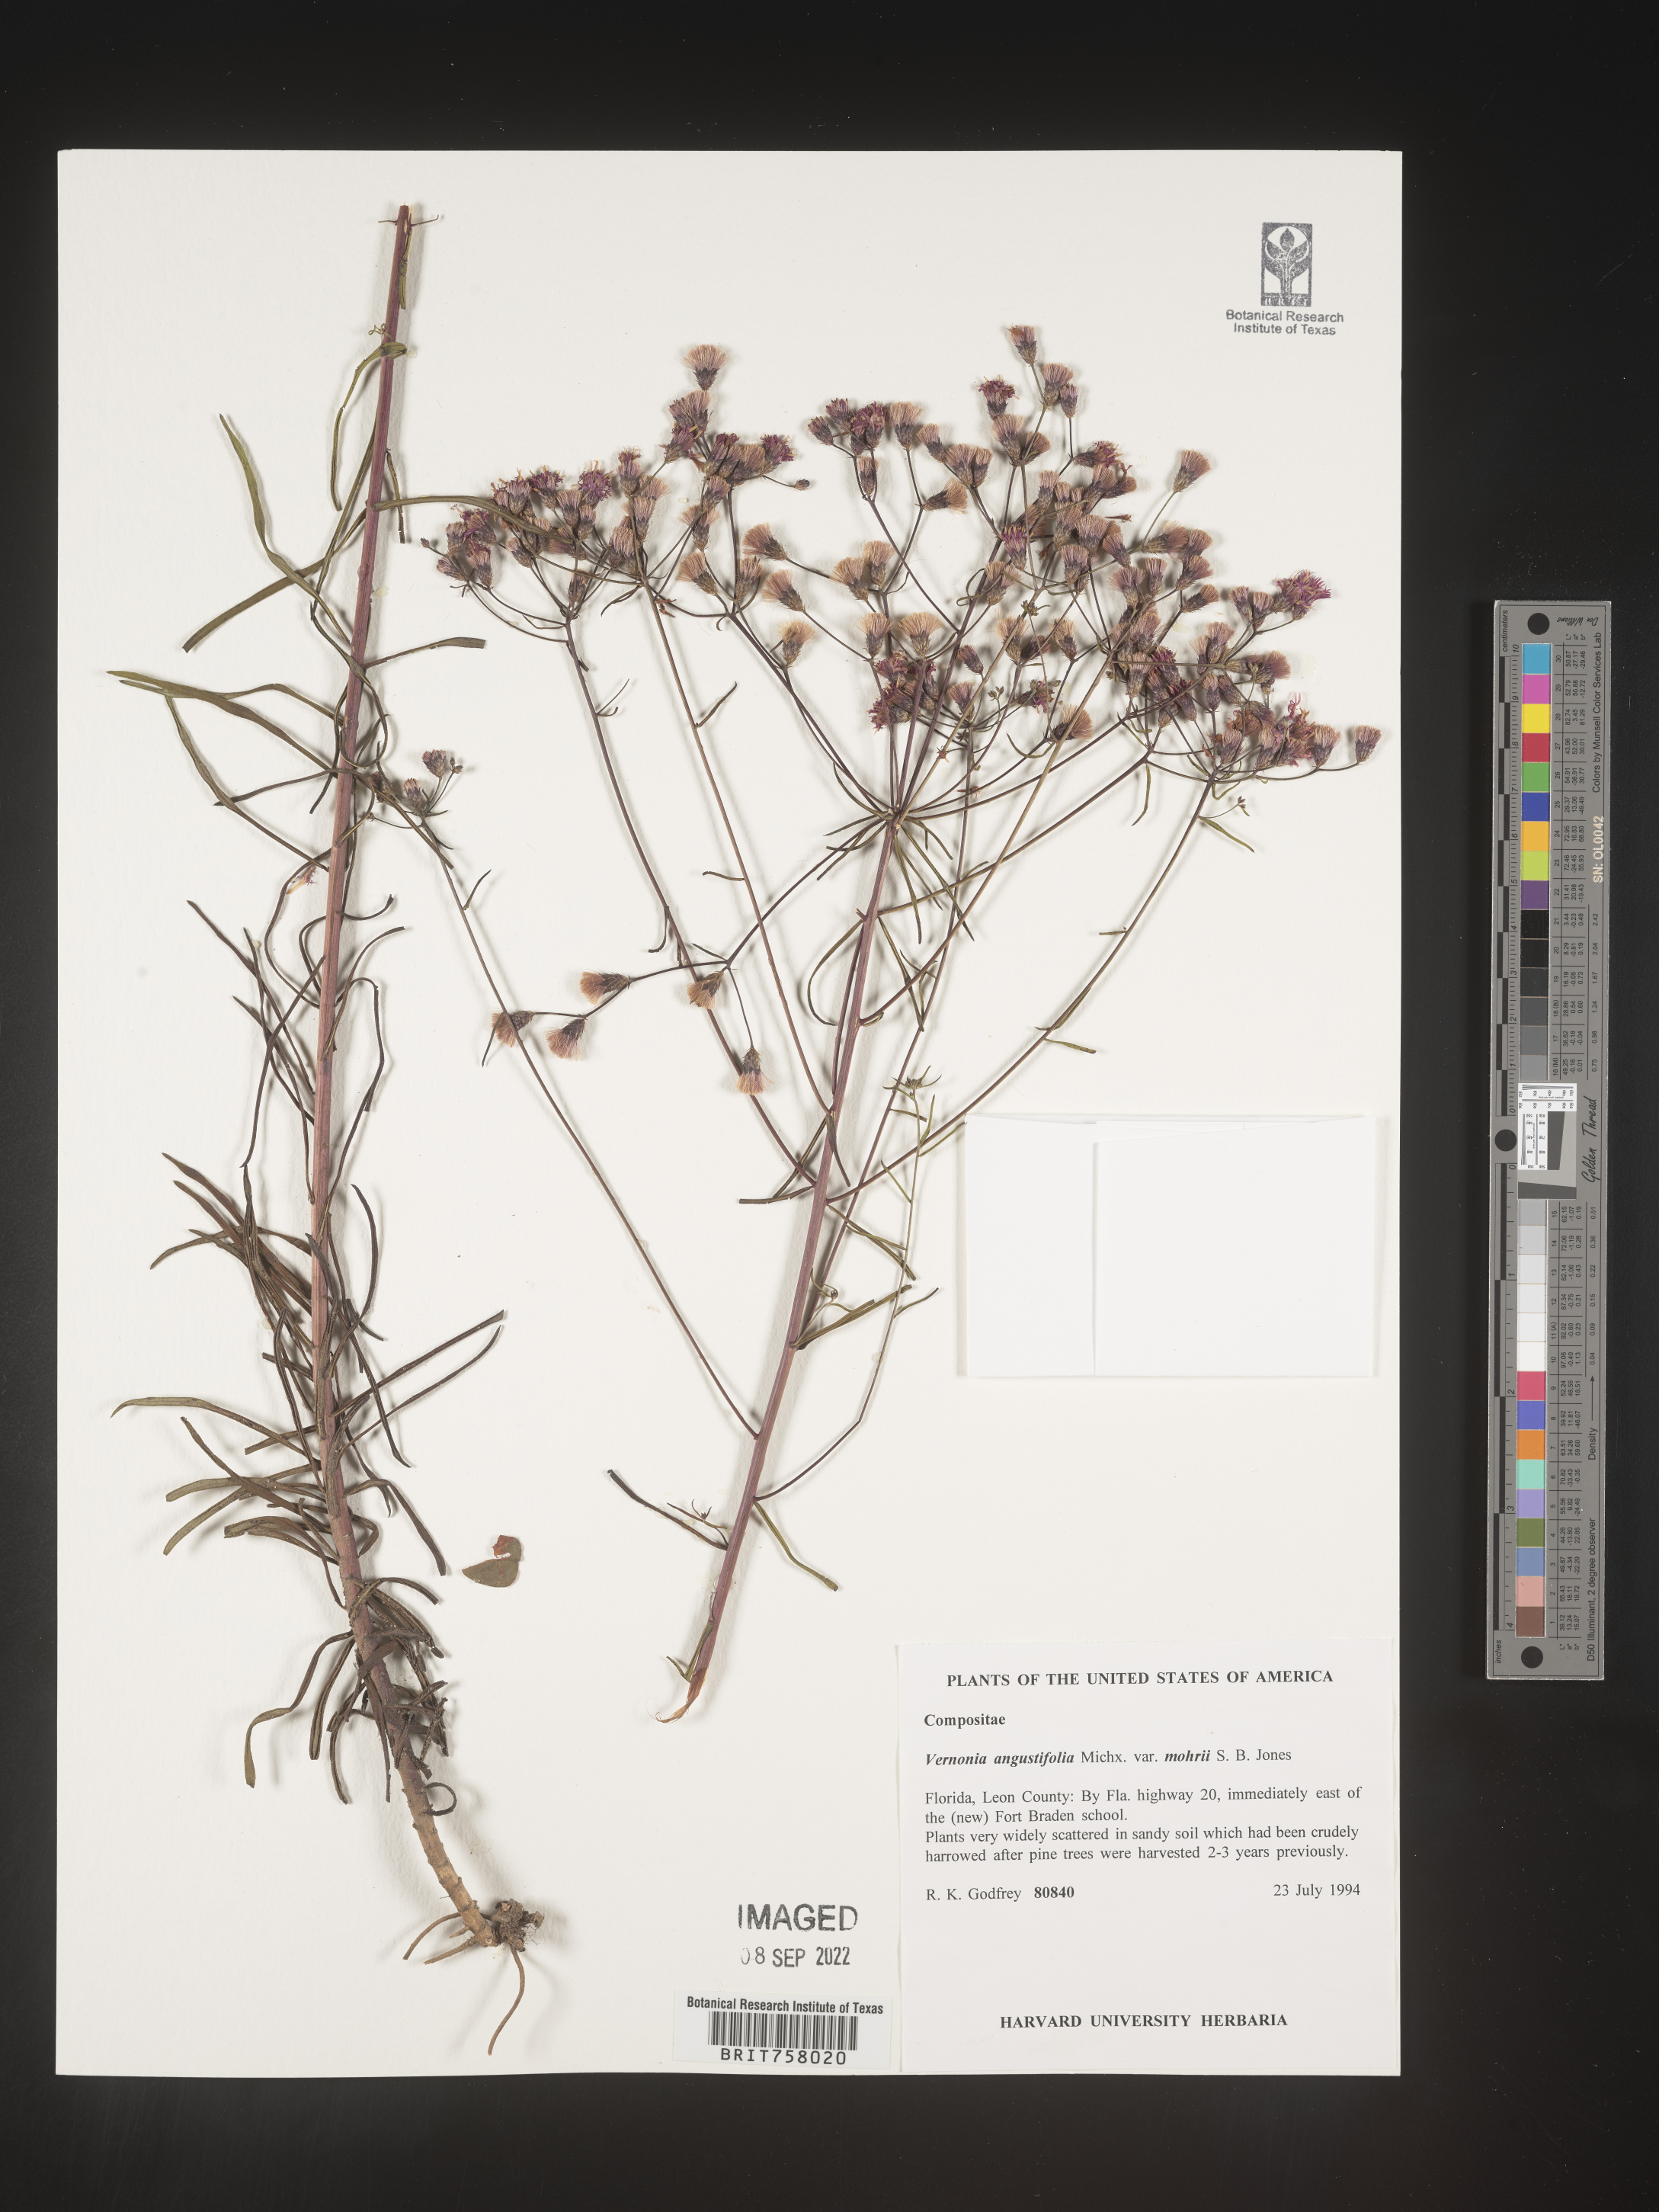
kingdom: Plantae
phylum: Tracheophyta
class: Magnoliopsida
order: Asterales
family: Asteraceae
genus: Vernonia
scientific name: Vernonia angustifolia
